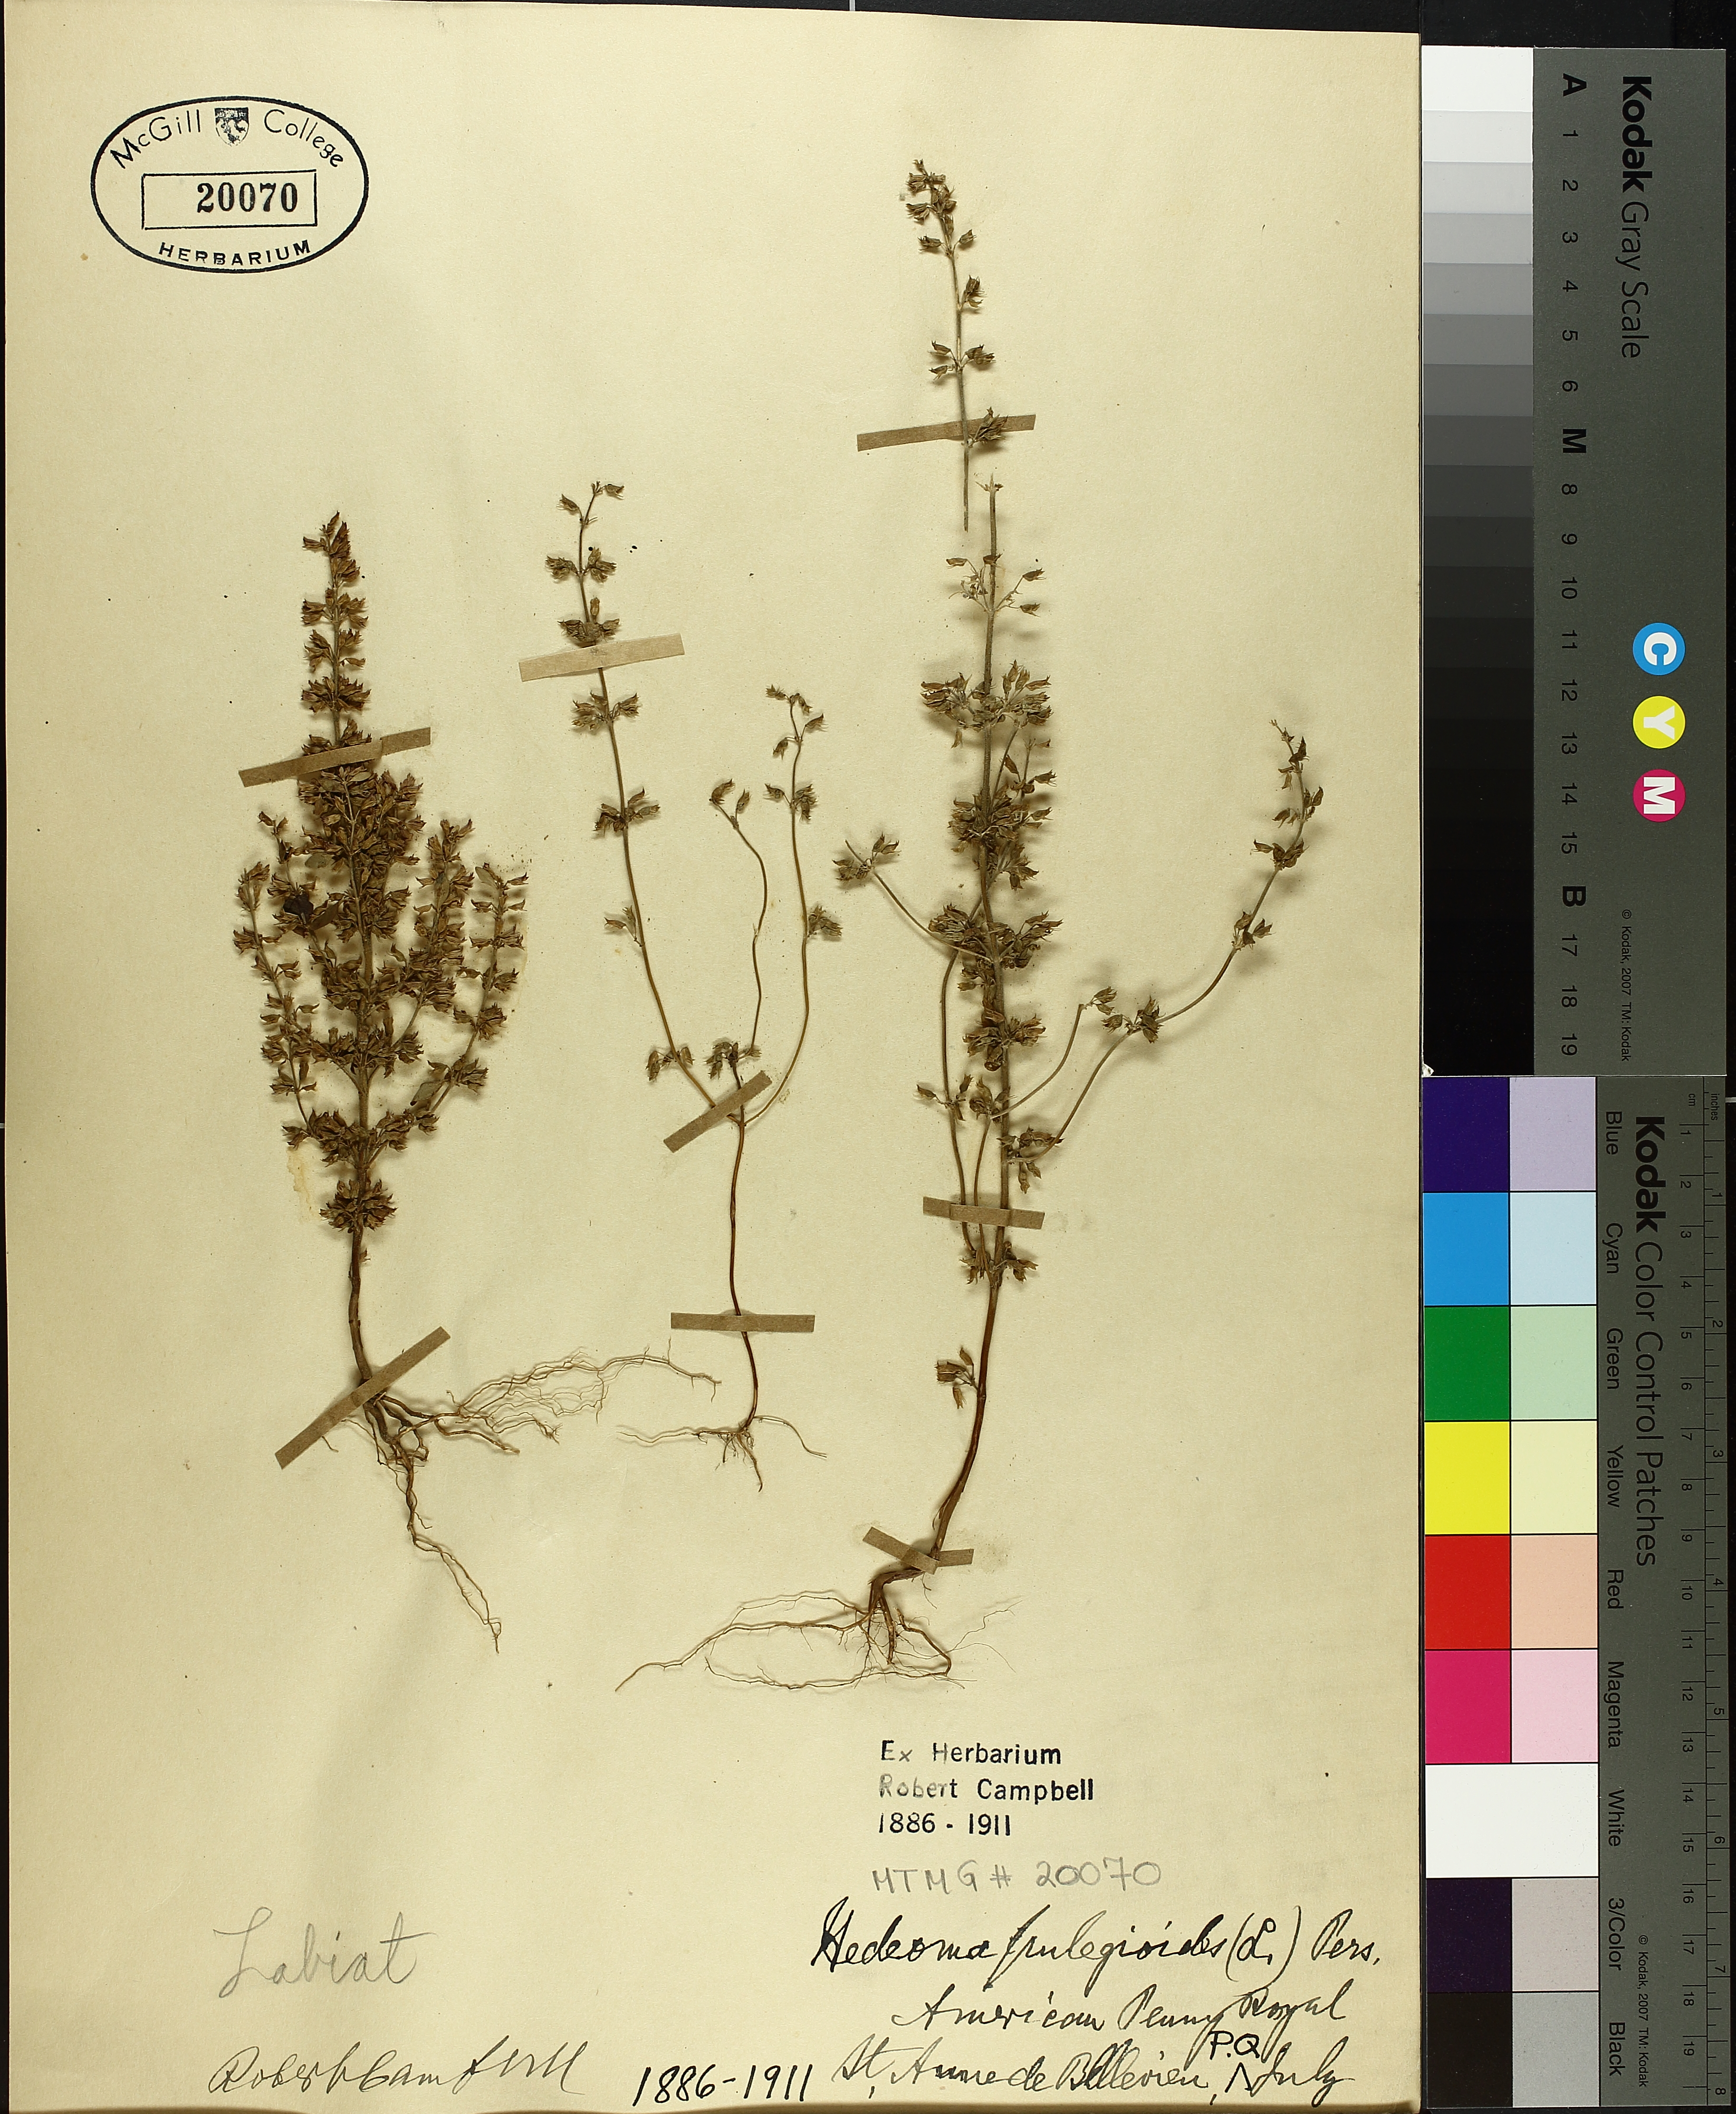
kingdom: Plantae
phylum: Tracheophyta
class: Magnoliopsida
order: Lamiales
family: Lamiaceae
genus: Hedeoma
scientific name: Hedeoma pulegioides
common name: American false pennyroyal
